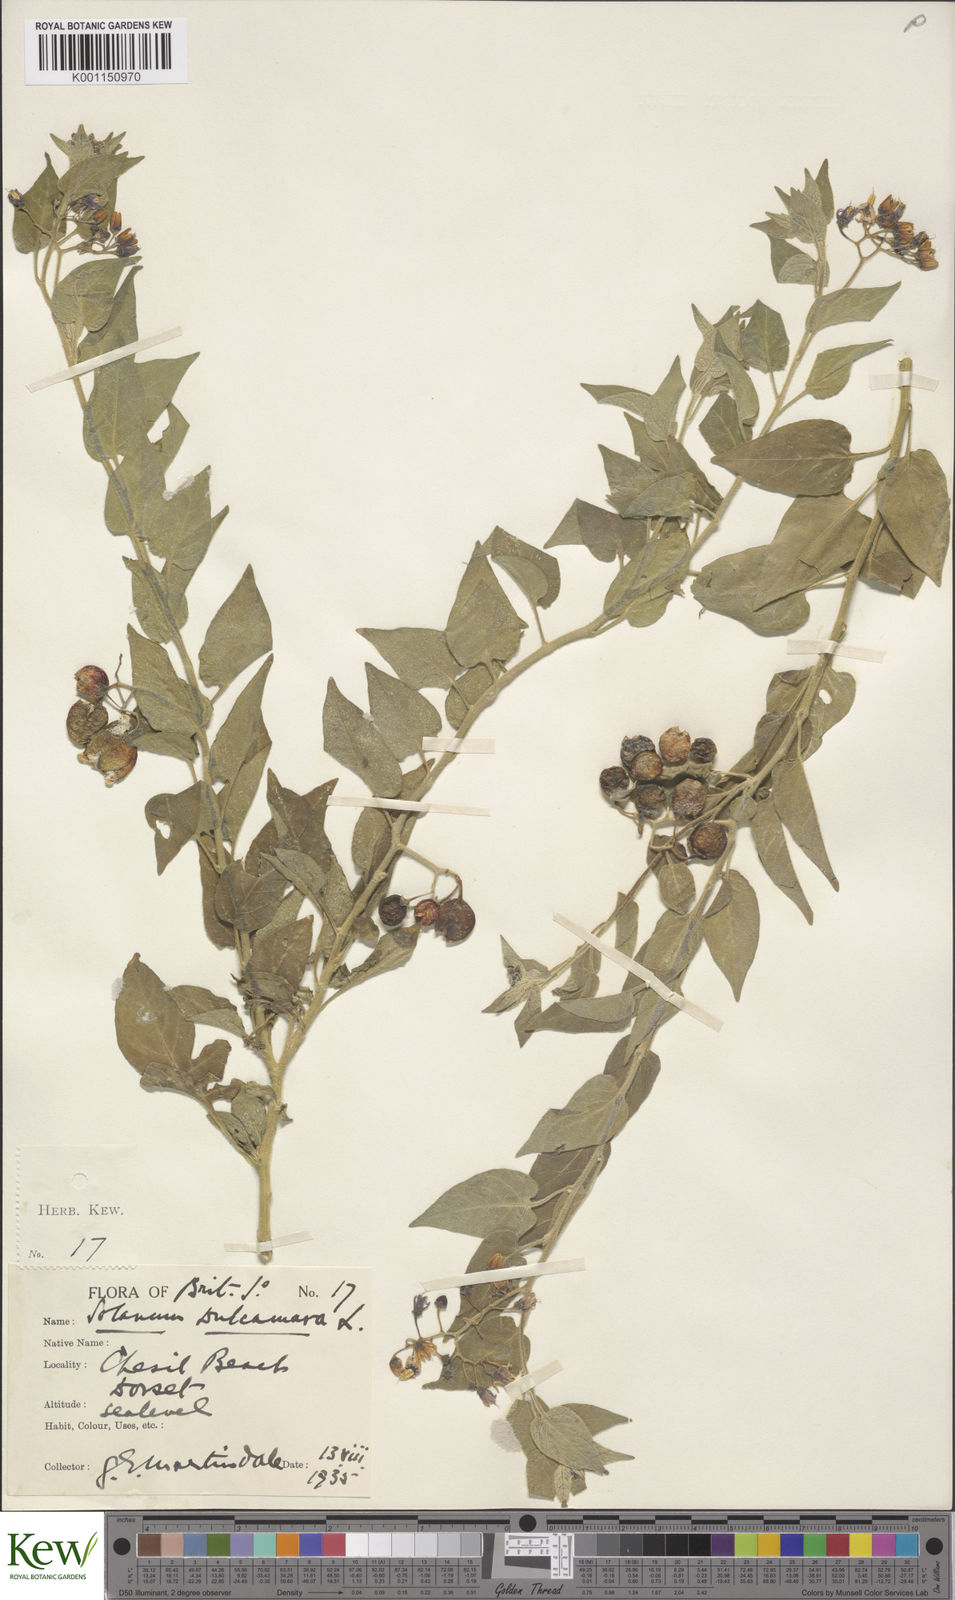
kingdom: Plantae
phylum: Tracheophyta
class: Magnoliopsida
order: Solanales
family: Solanaceae
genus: Solanum
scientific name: Solanum dulcamara
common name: Climbing nightshade
